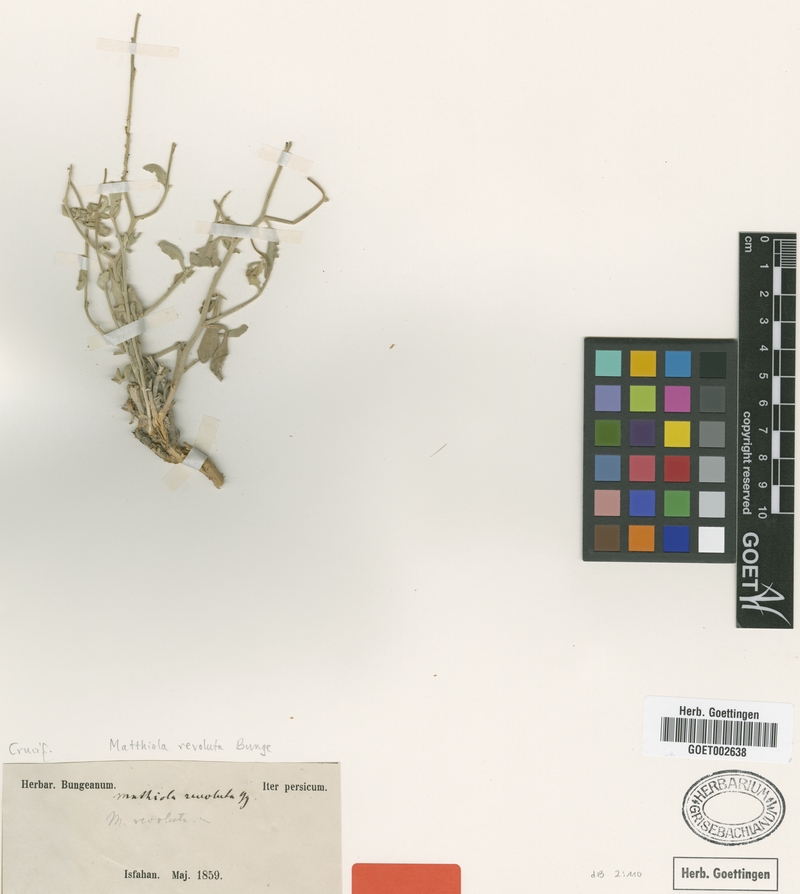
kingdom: Plantae
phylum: Tracheophyta
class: Magnoliopsida
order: Brassicales
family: Brassicaceae
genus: Matthiola
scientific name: Matthiola revoluta
